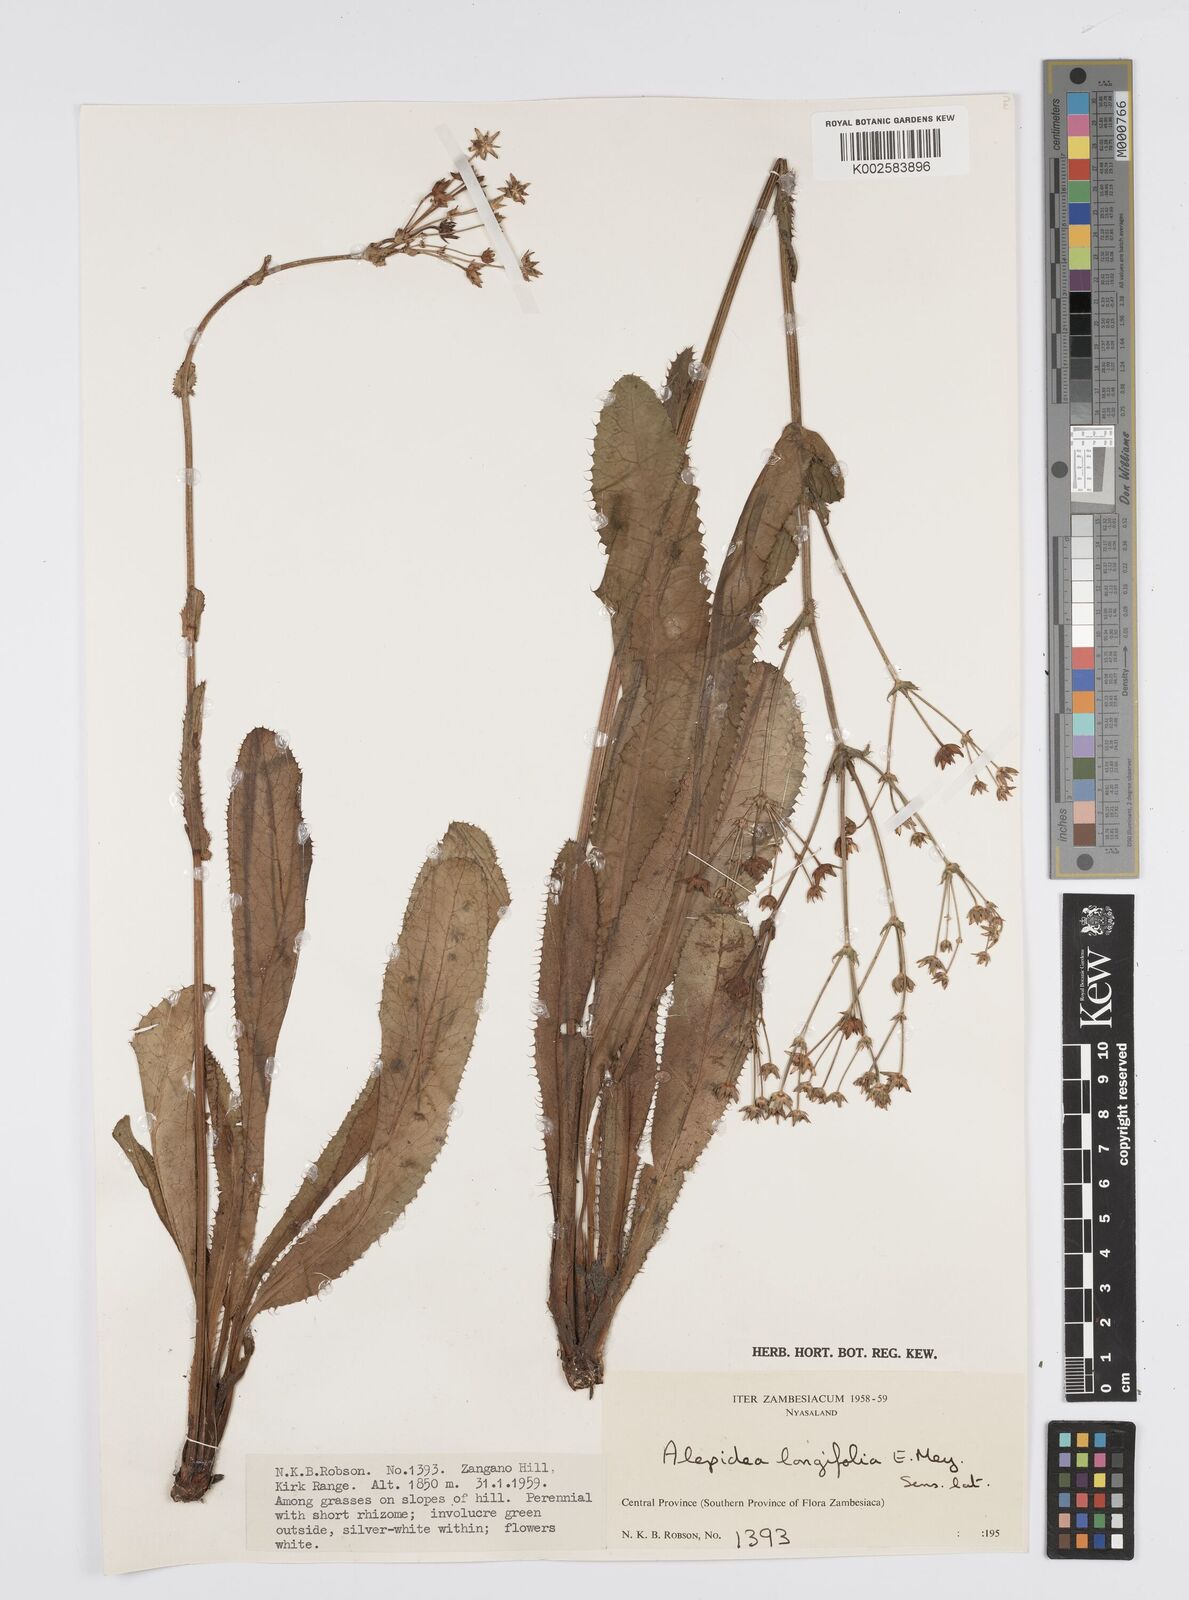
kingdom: Plantae
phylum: Tracheophyta
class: Magnoliopsida
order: Apiales
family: Apiaceae
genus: Alepidea
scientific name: Alepidea
